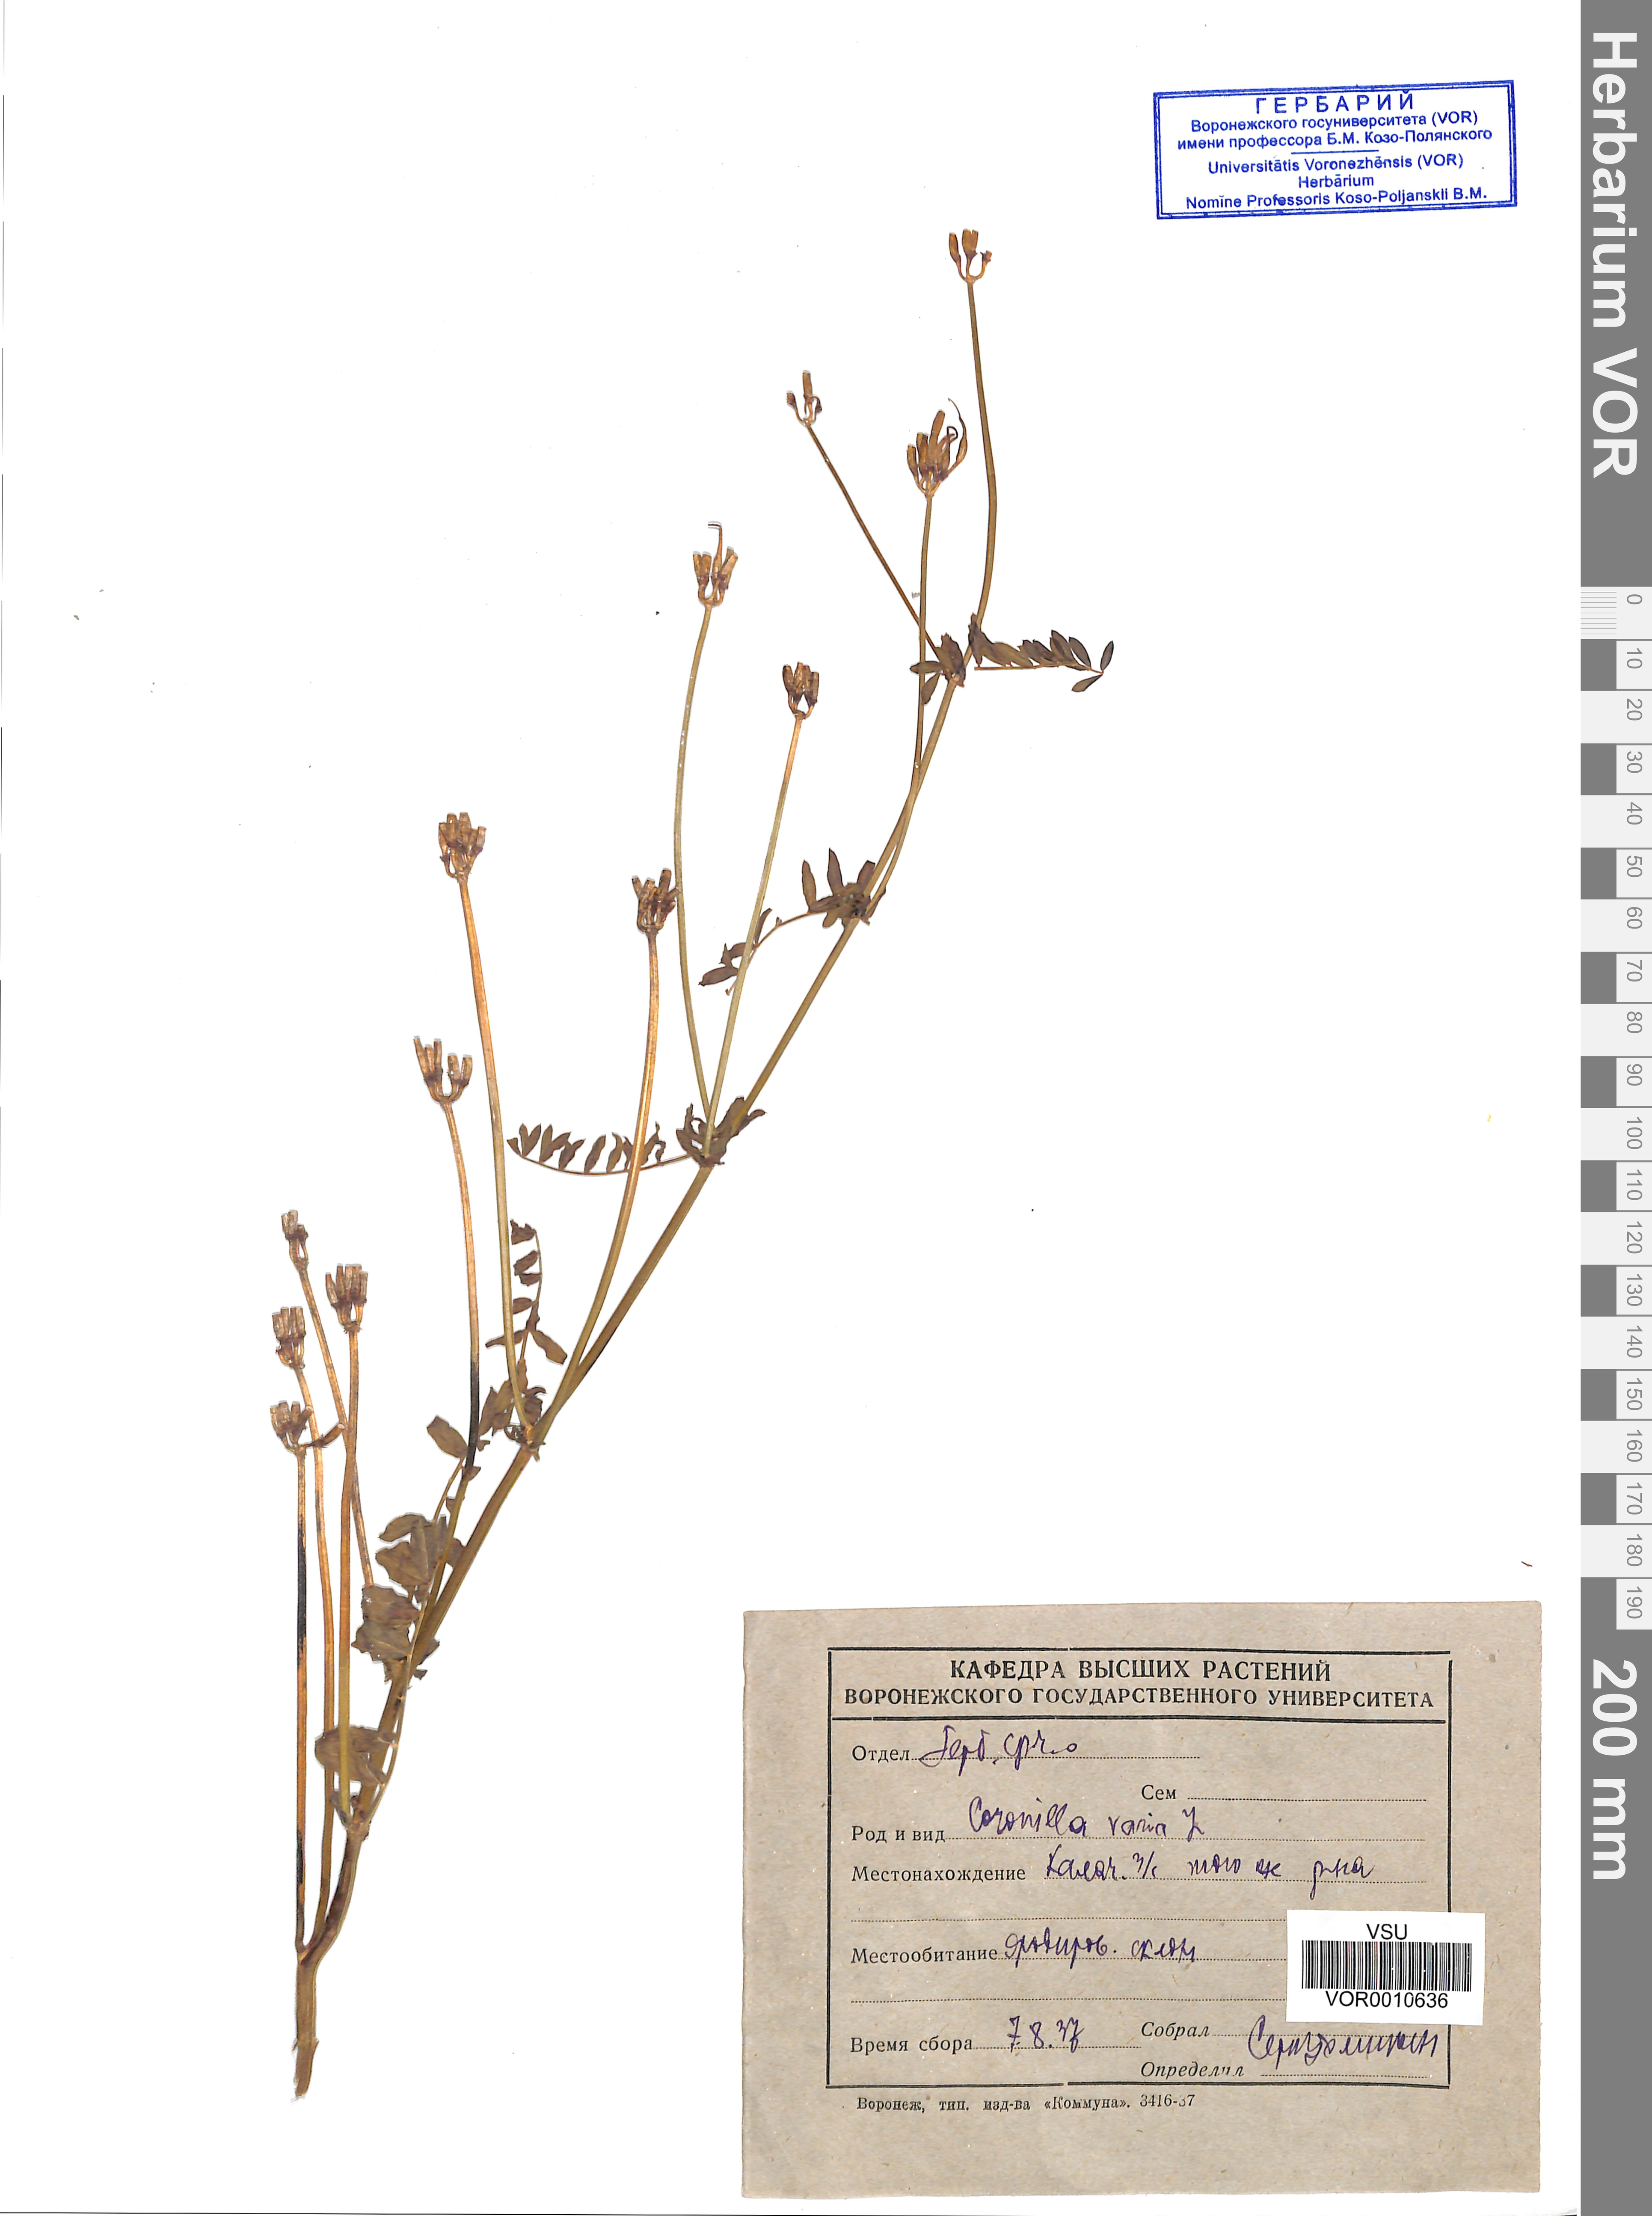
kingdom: Plantae
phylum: Tracheophyta
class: Magnoliopsida
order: Fabales
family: Fabaceae
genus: Coronilla
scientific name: Coronilla varia
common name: Crownvetch
